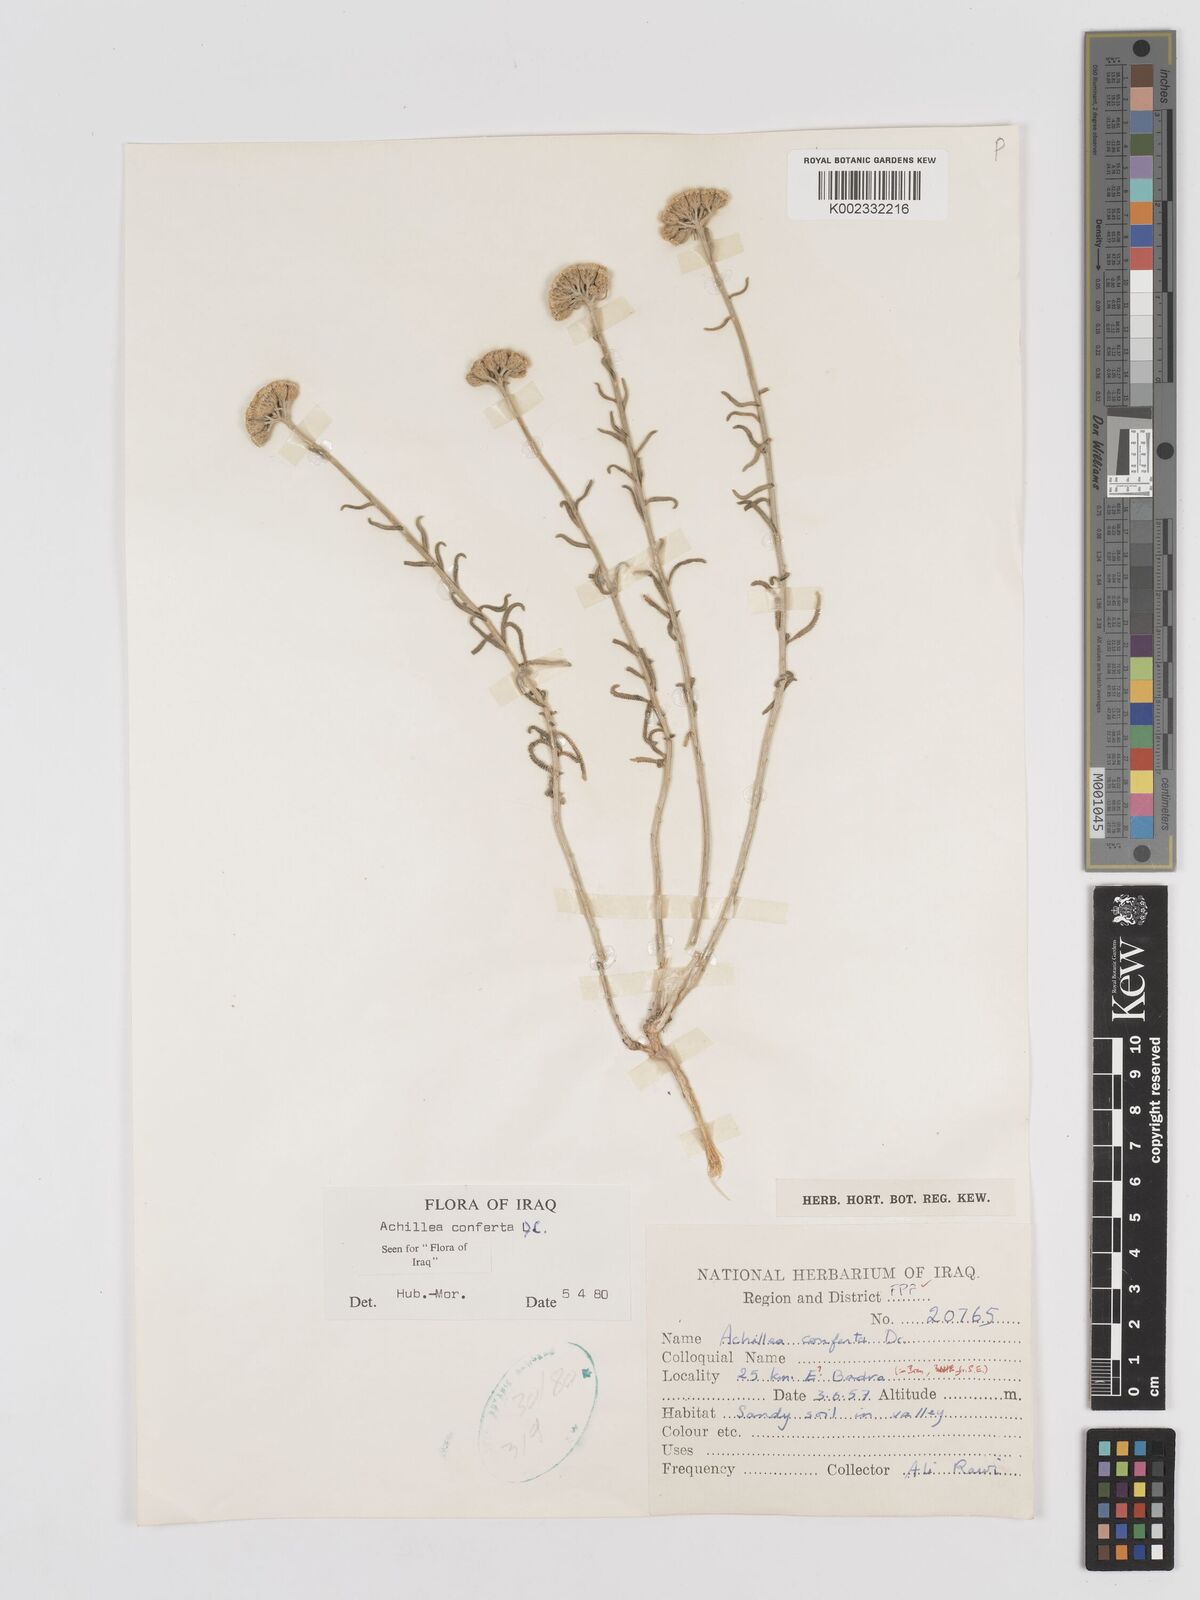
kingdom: Plantae
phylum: Tracheophyta
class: Magnoliopsida
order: Asterales
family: Asteraceae
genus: Achillea
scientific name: Achillea conferta
